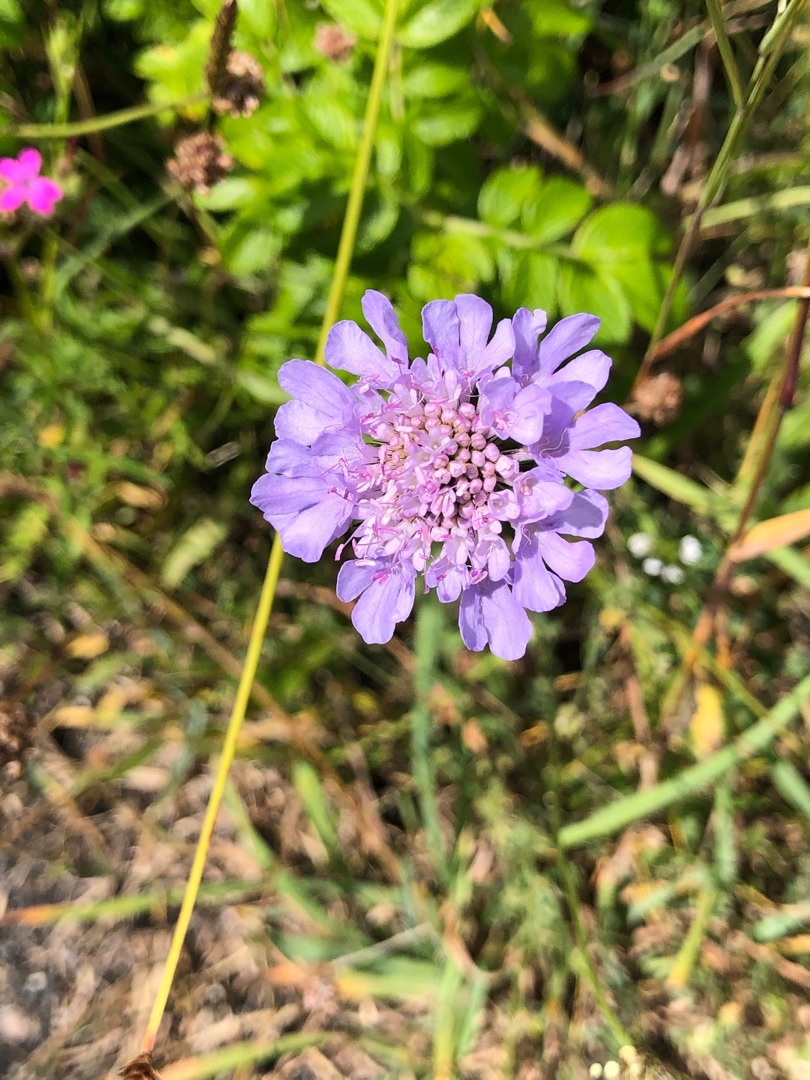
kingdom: Plantae
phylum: Tracheophyta
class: Magnoliopsida
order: Dipsacales
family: Caprifoliaceae
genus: Scabiosa
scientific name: Scabiosa columbaria
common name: Due-skabiose
